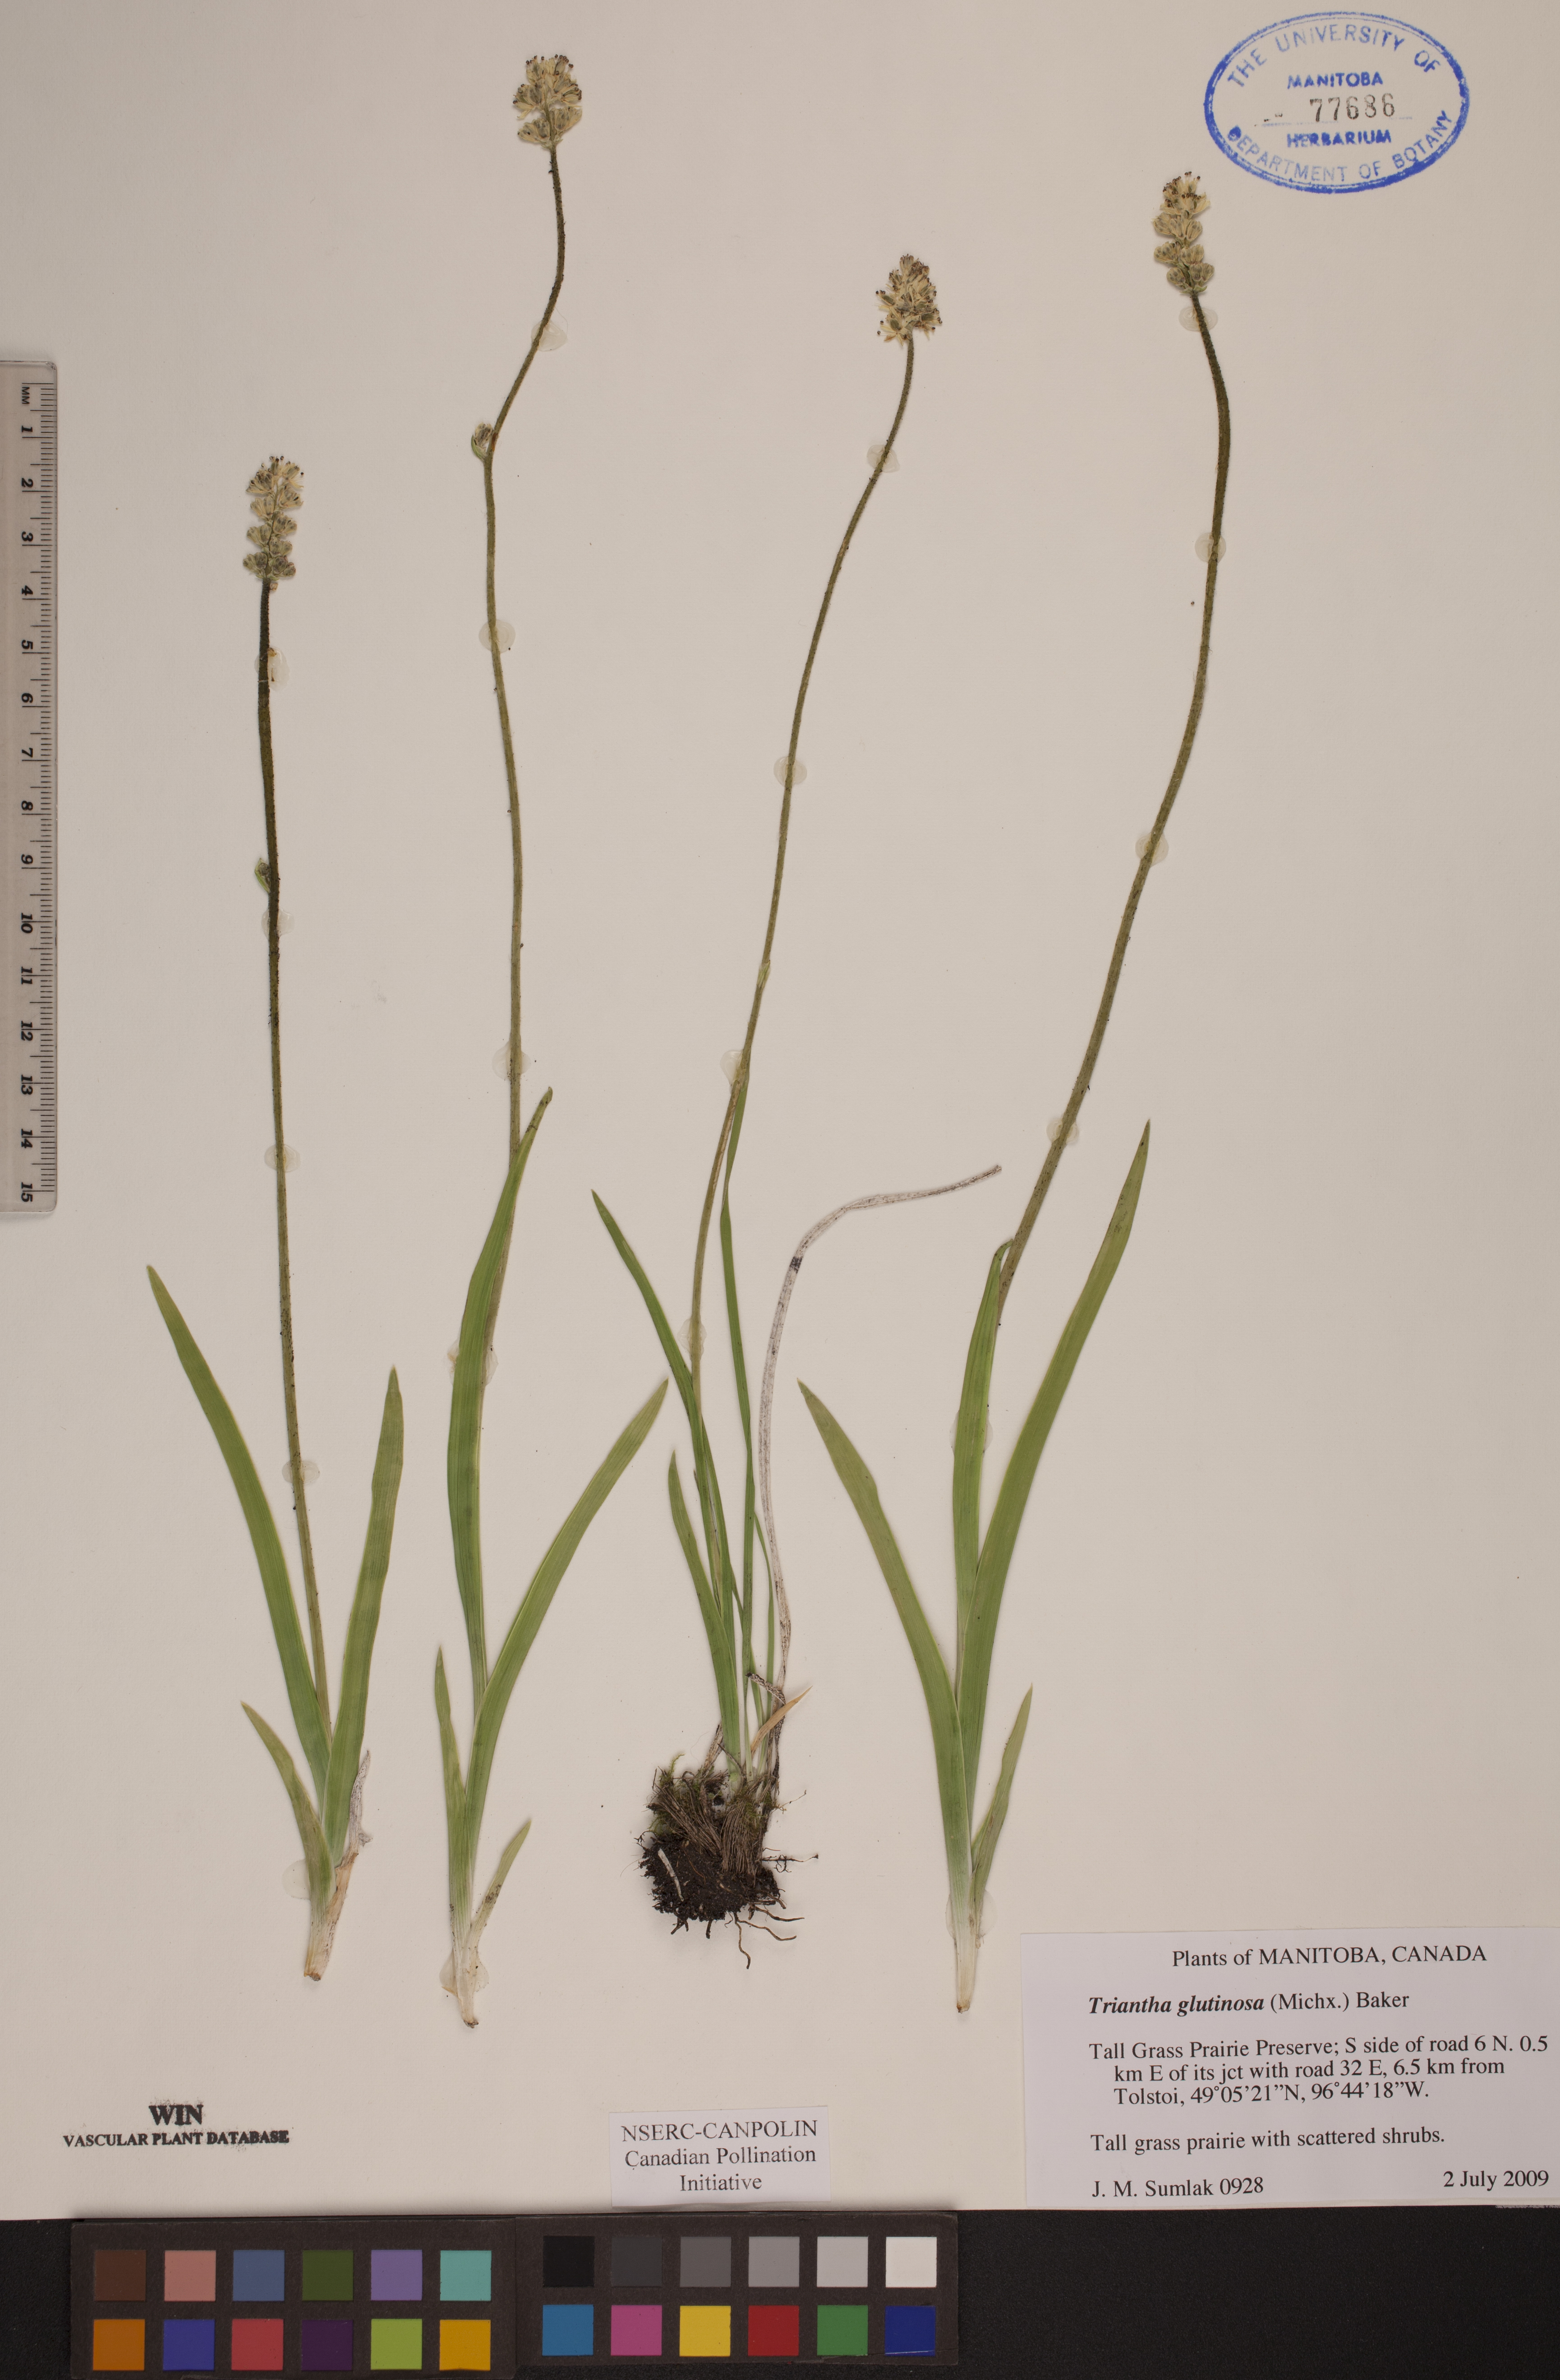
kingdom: Plantae
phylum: Tracheophyta
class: Liliopsida
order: Alismatales
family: Tofieldiaceae
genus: Triantha
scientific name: Triantha glutinosa
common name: Glutinous tofieldia
